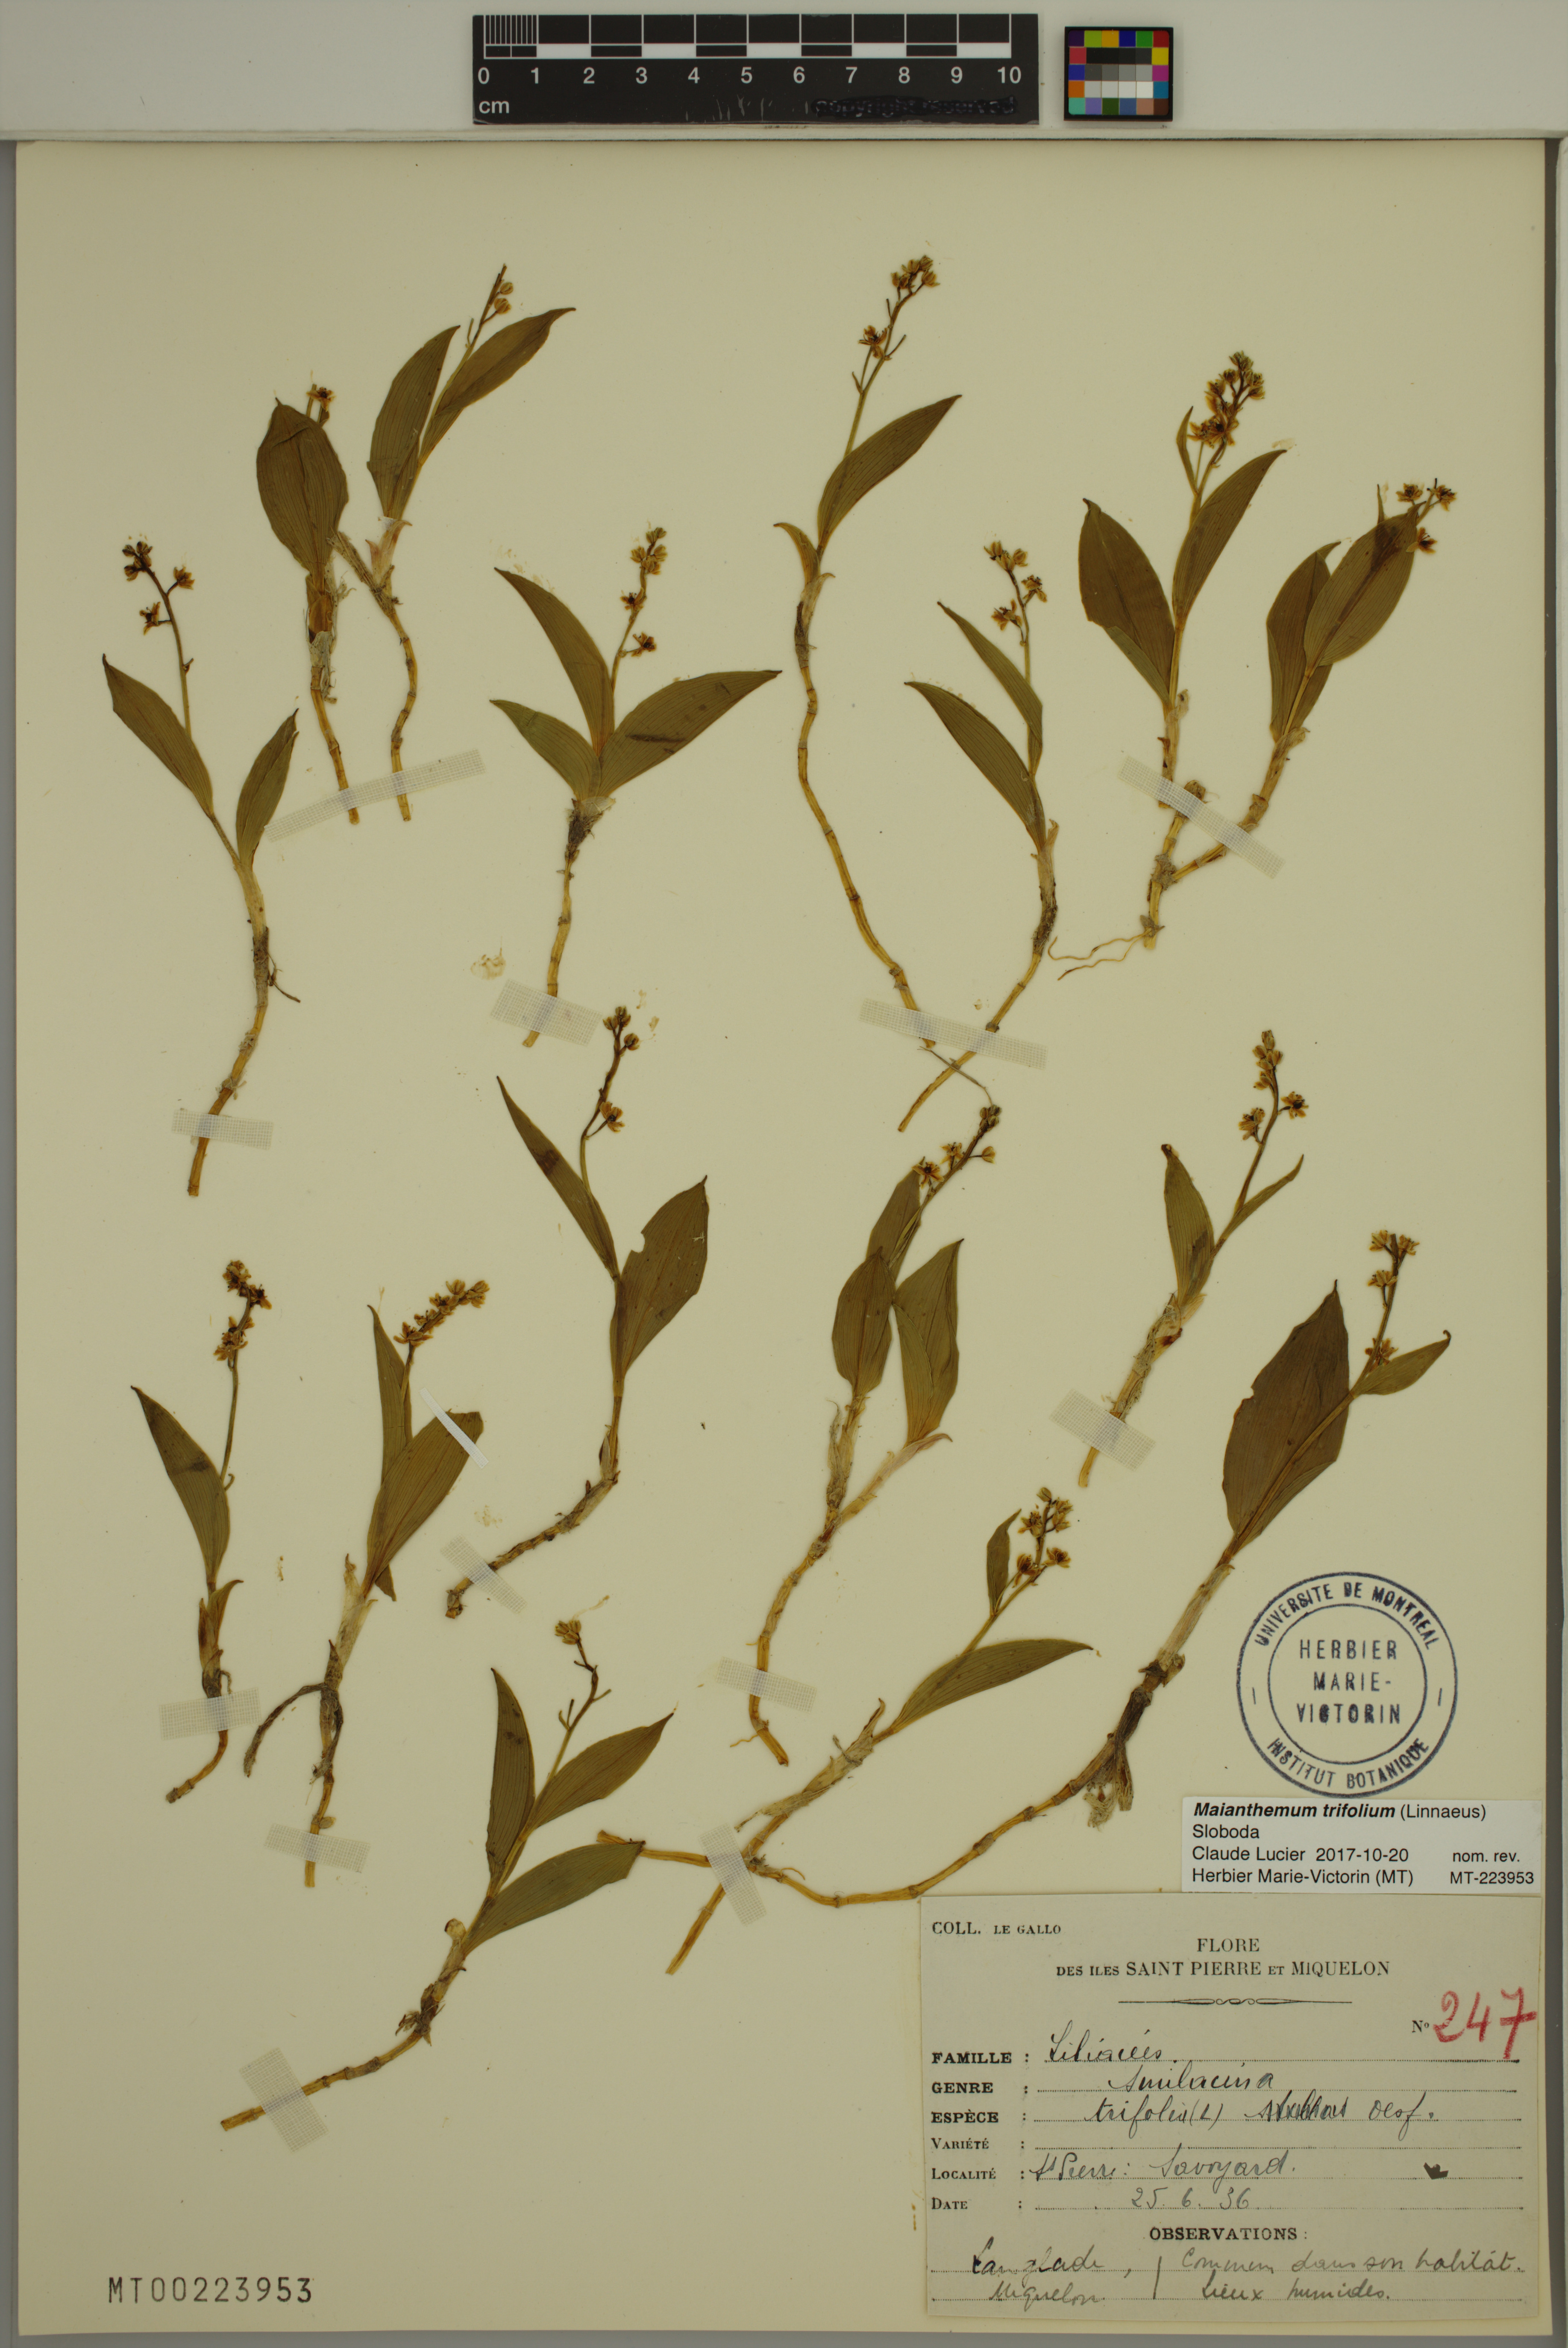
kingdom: Plantae
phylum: Tracheophyta
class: Liliopsida
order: Asparagales
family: Asparagaceae
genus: Maianthemum
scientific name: Maianthemum trifolium
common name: Swamp false solomon's seal
